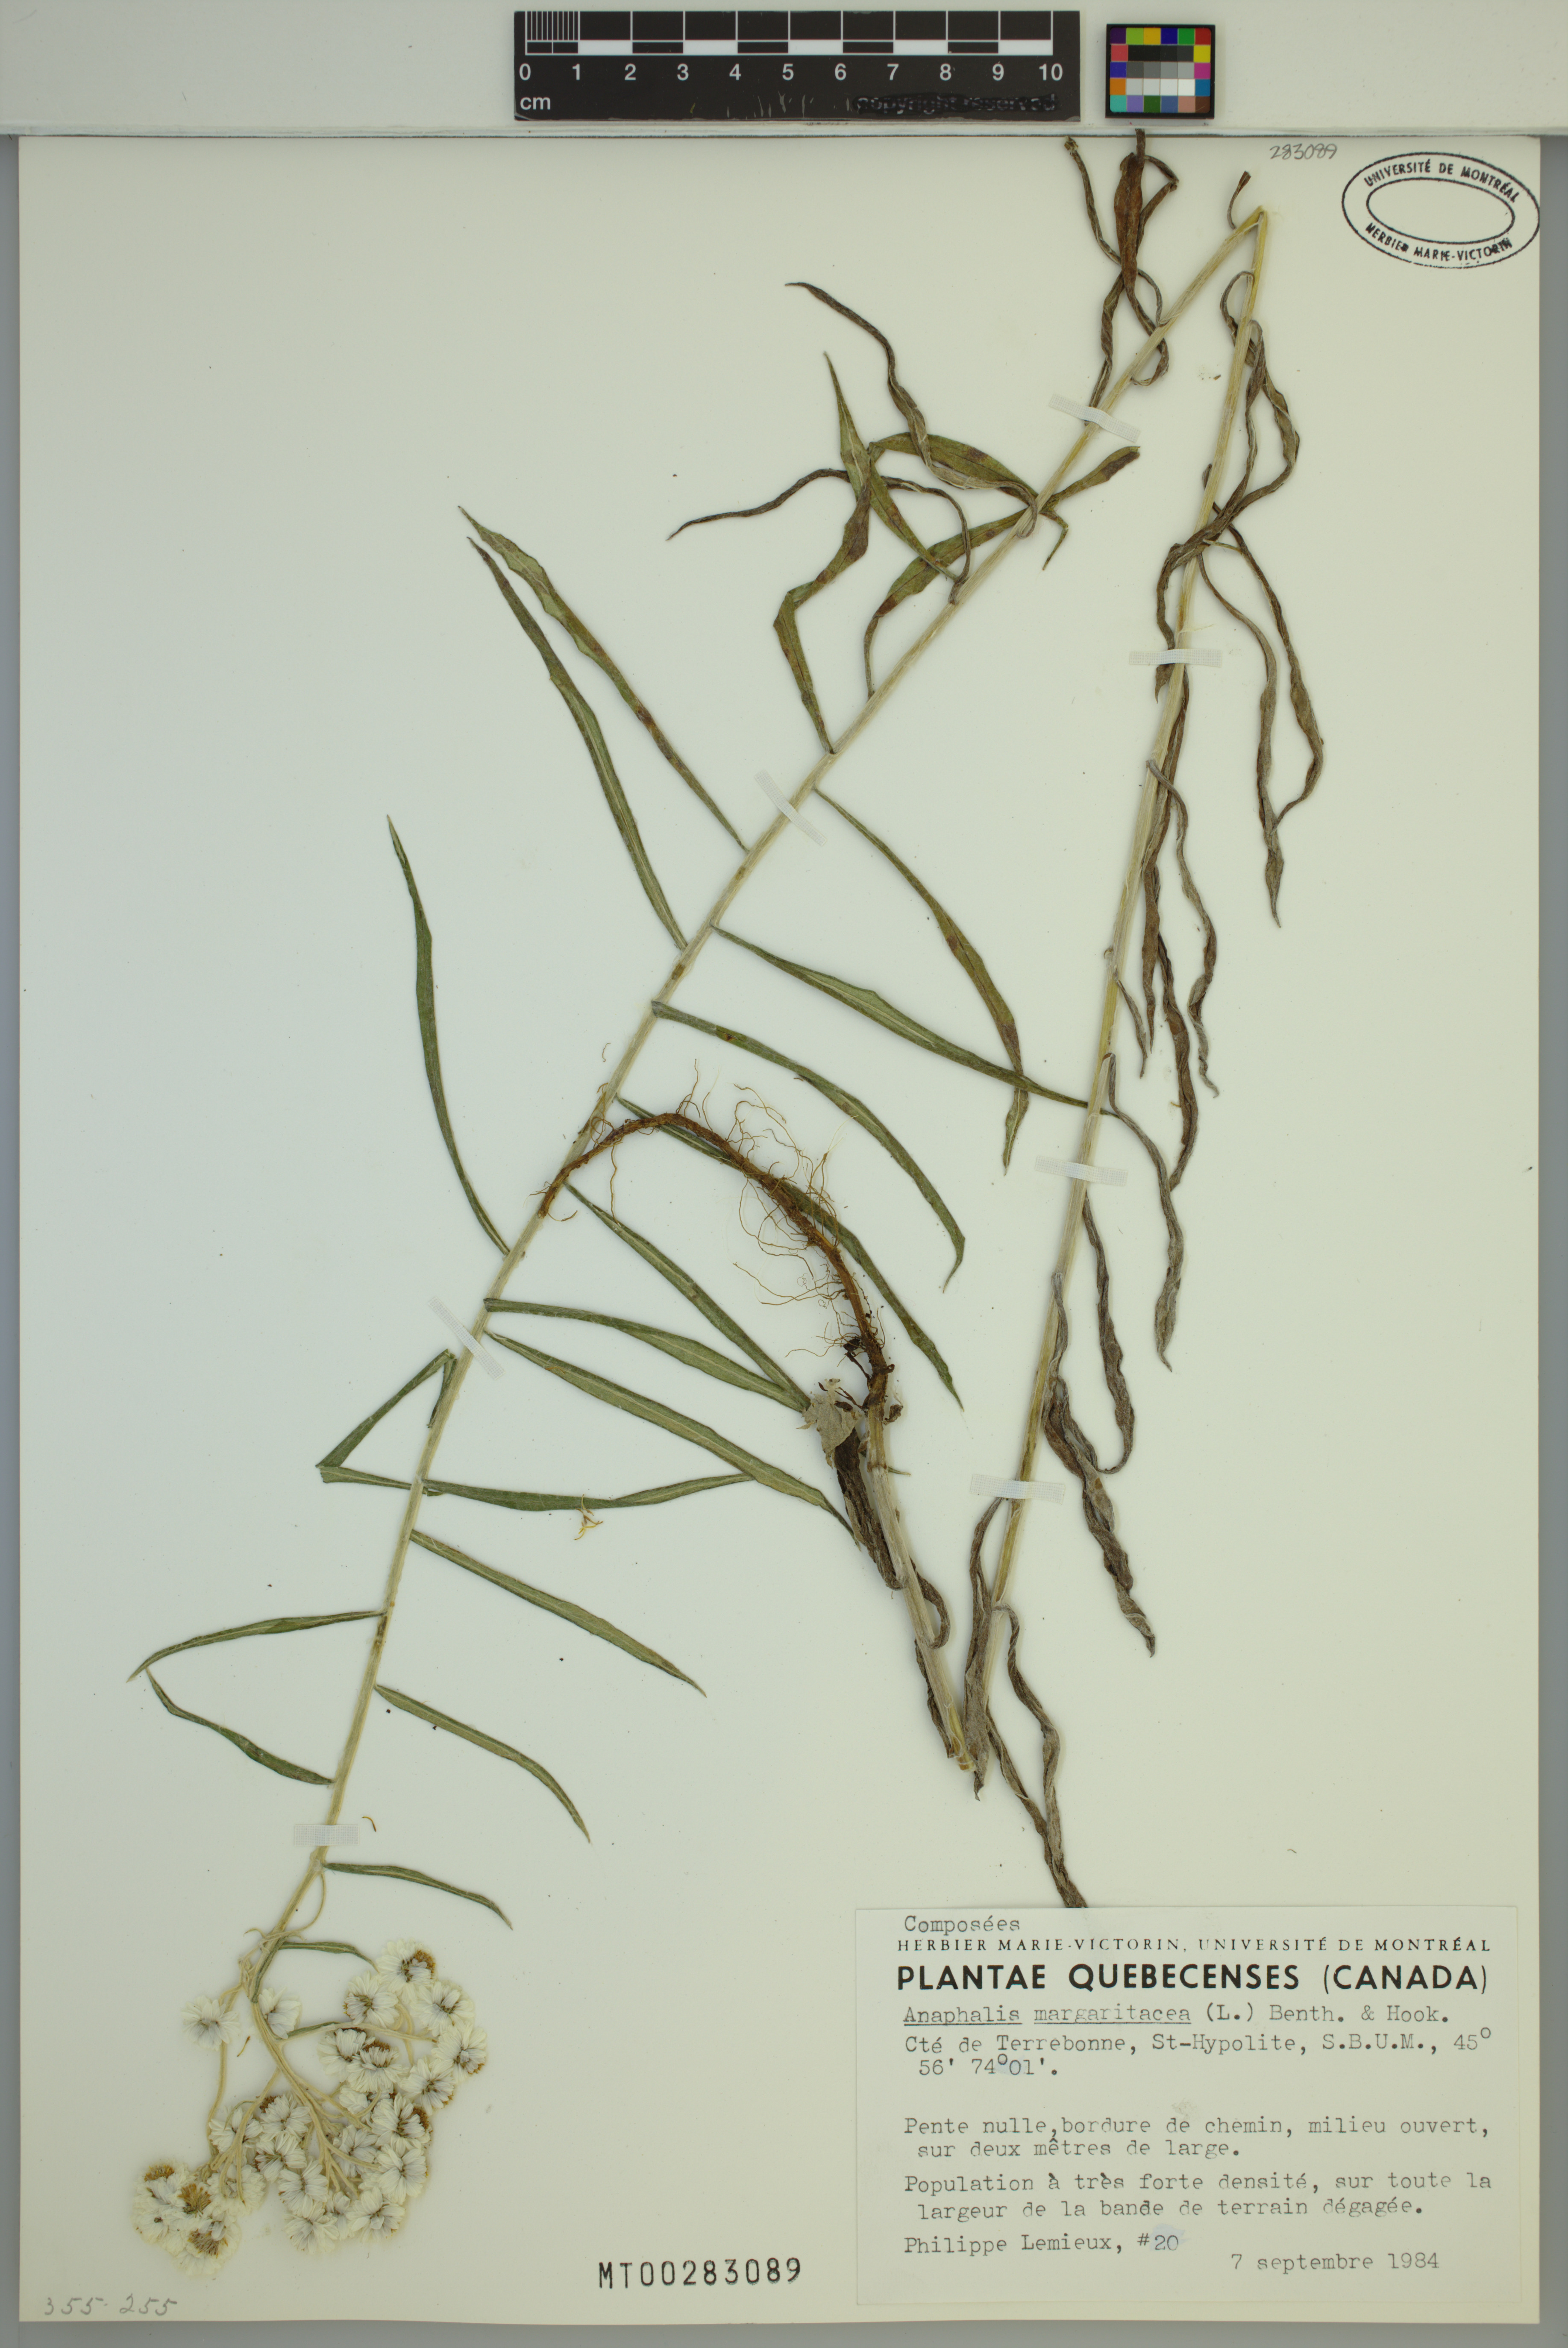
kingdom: Plantae
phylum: Tracheophyta
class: Magnoliopsida
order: Asterales
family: Asteraceae
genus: Anaphalis
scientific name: Anaphalis margaritacea
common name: Pearly everlasting
